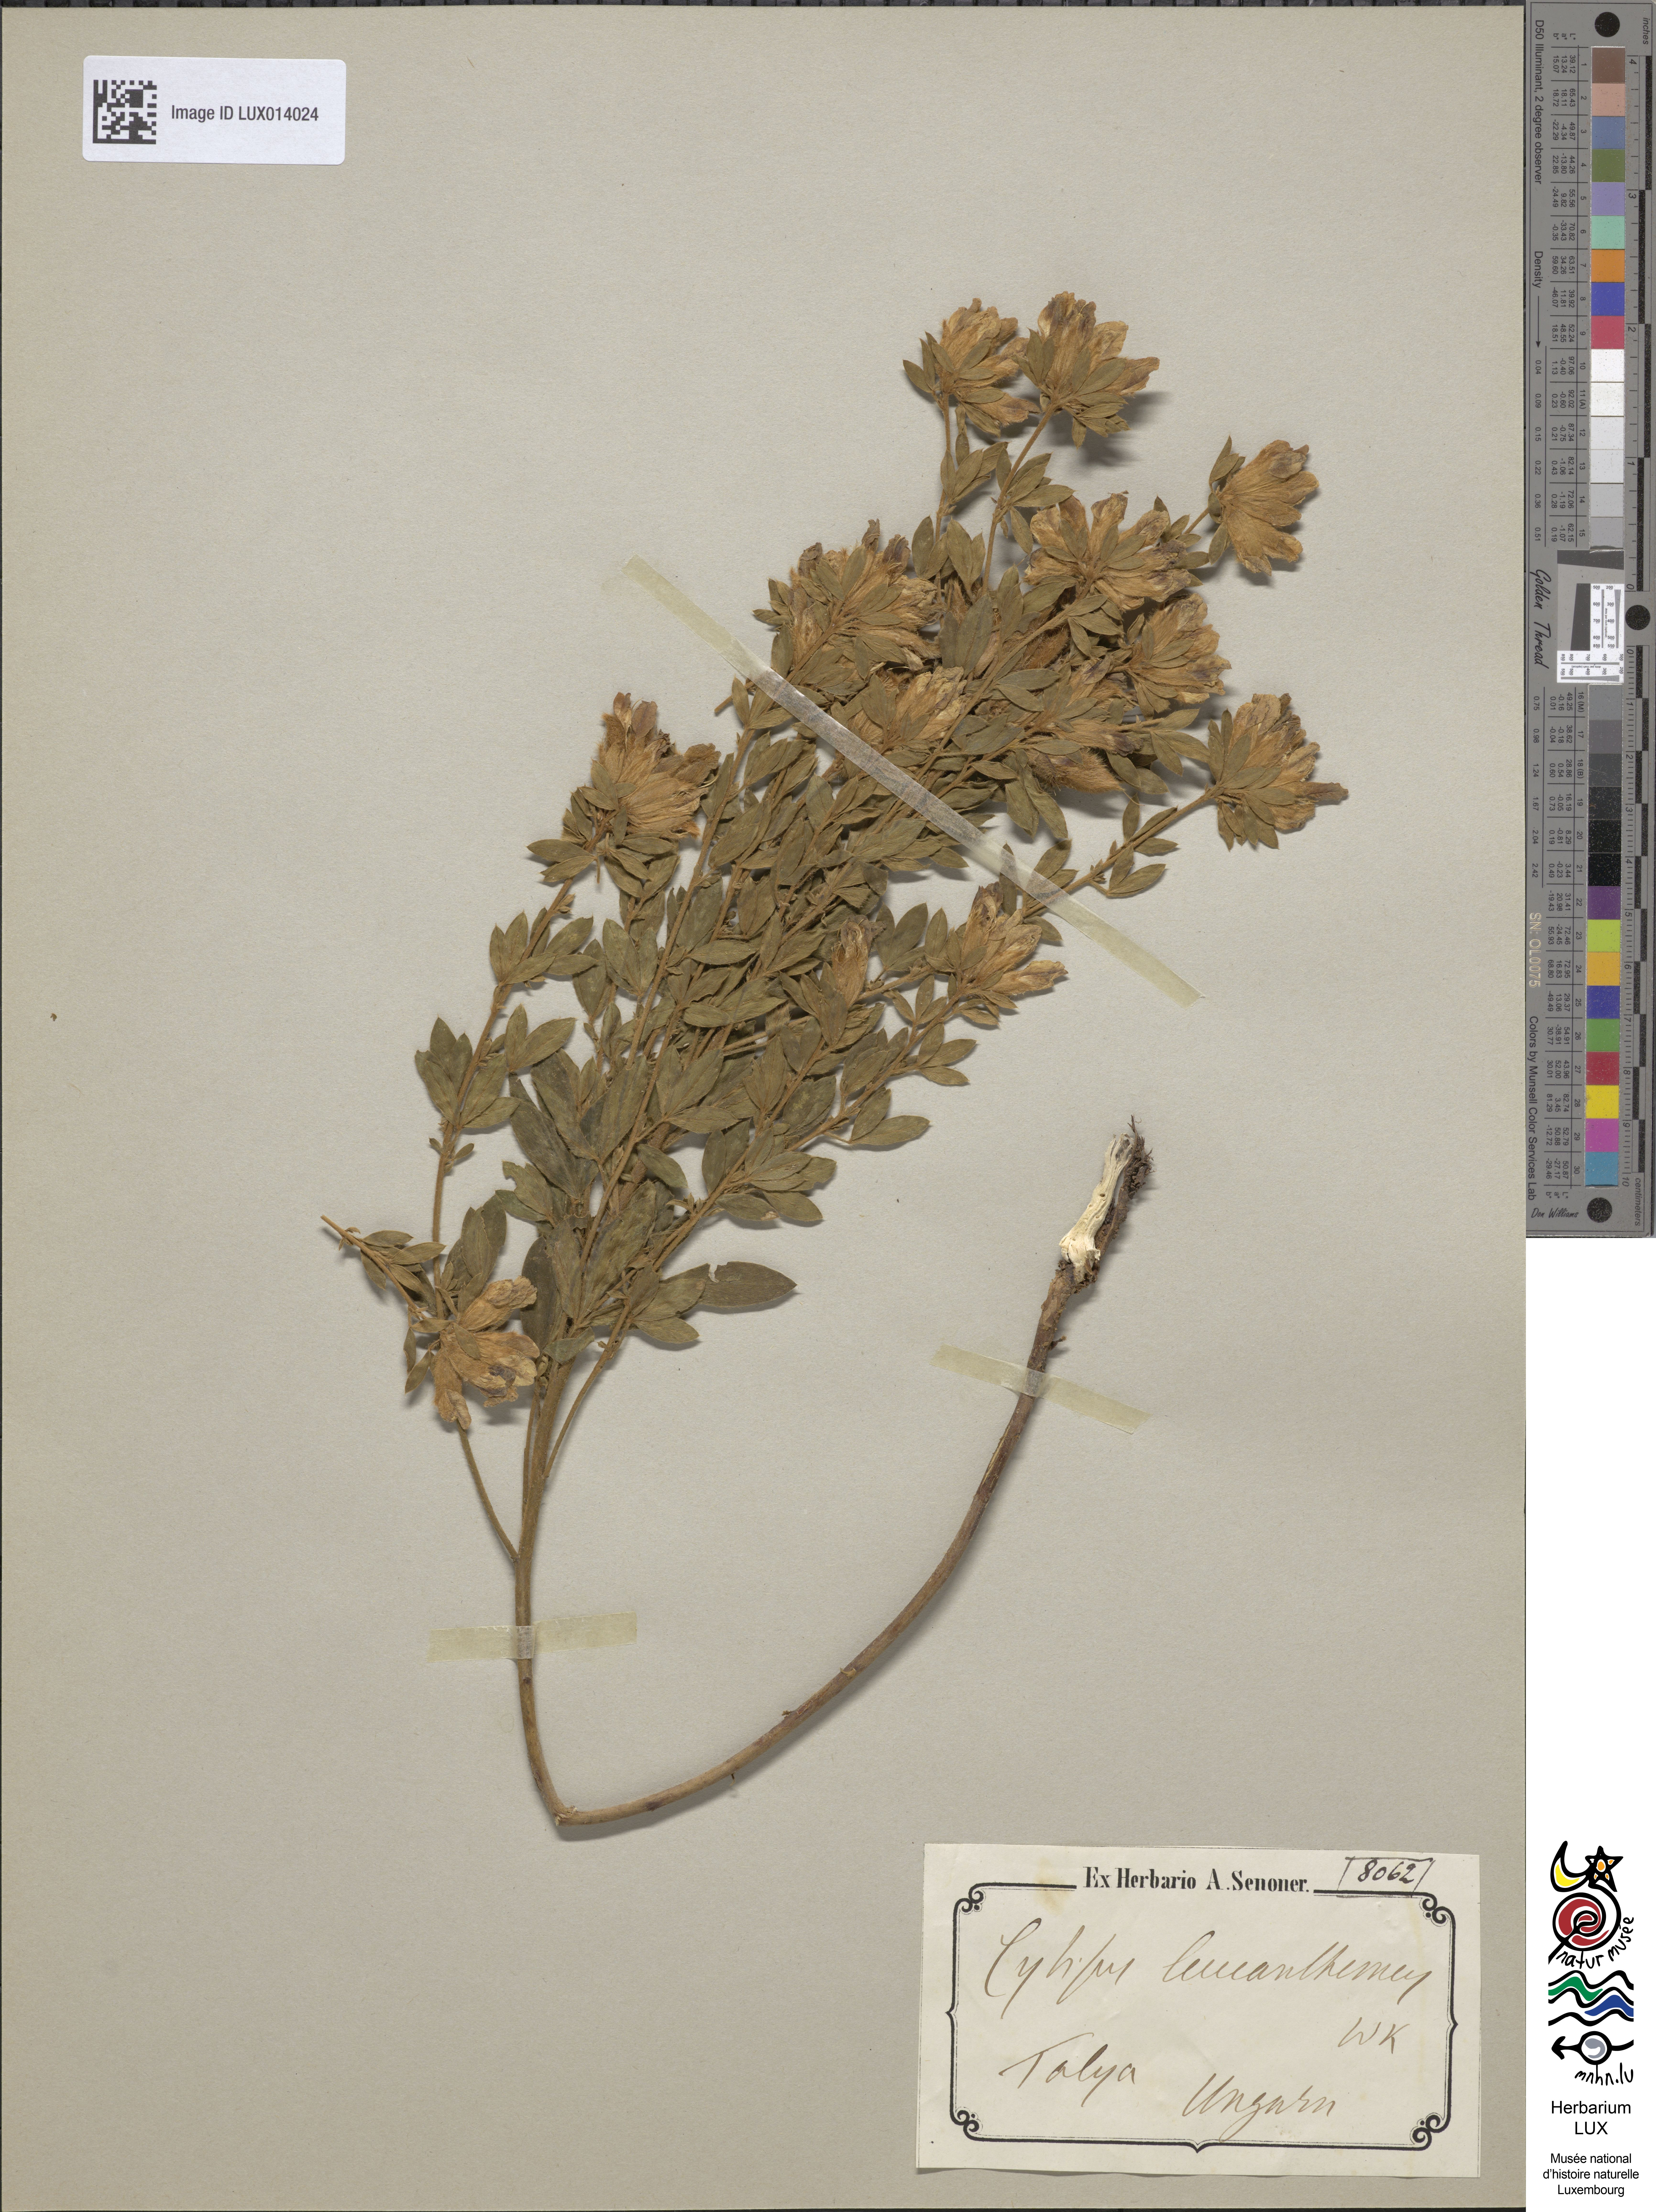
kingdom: Plantae
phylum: Tracheophyta
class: Magnoliopsida
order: Fabales
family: Fabaceae
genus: Chamaecytisus
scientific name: Chamaecytisus albus
